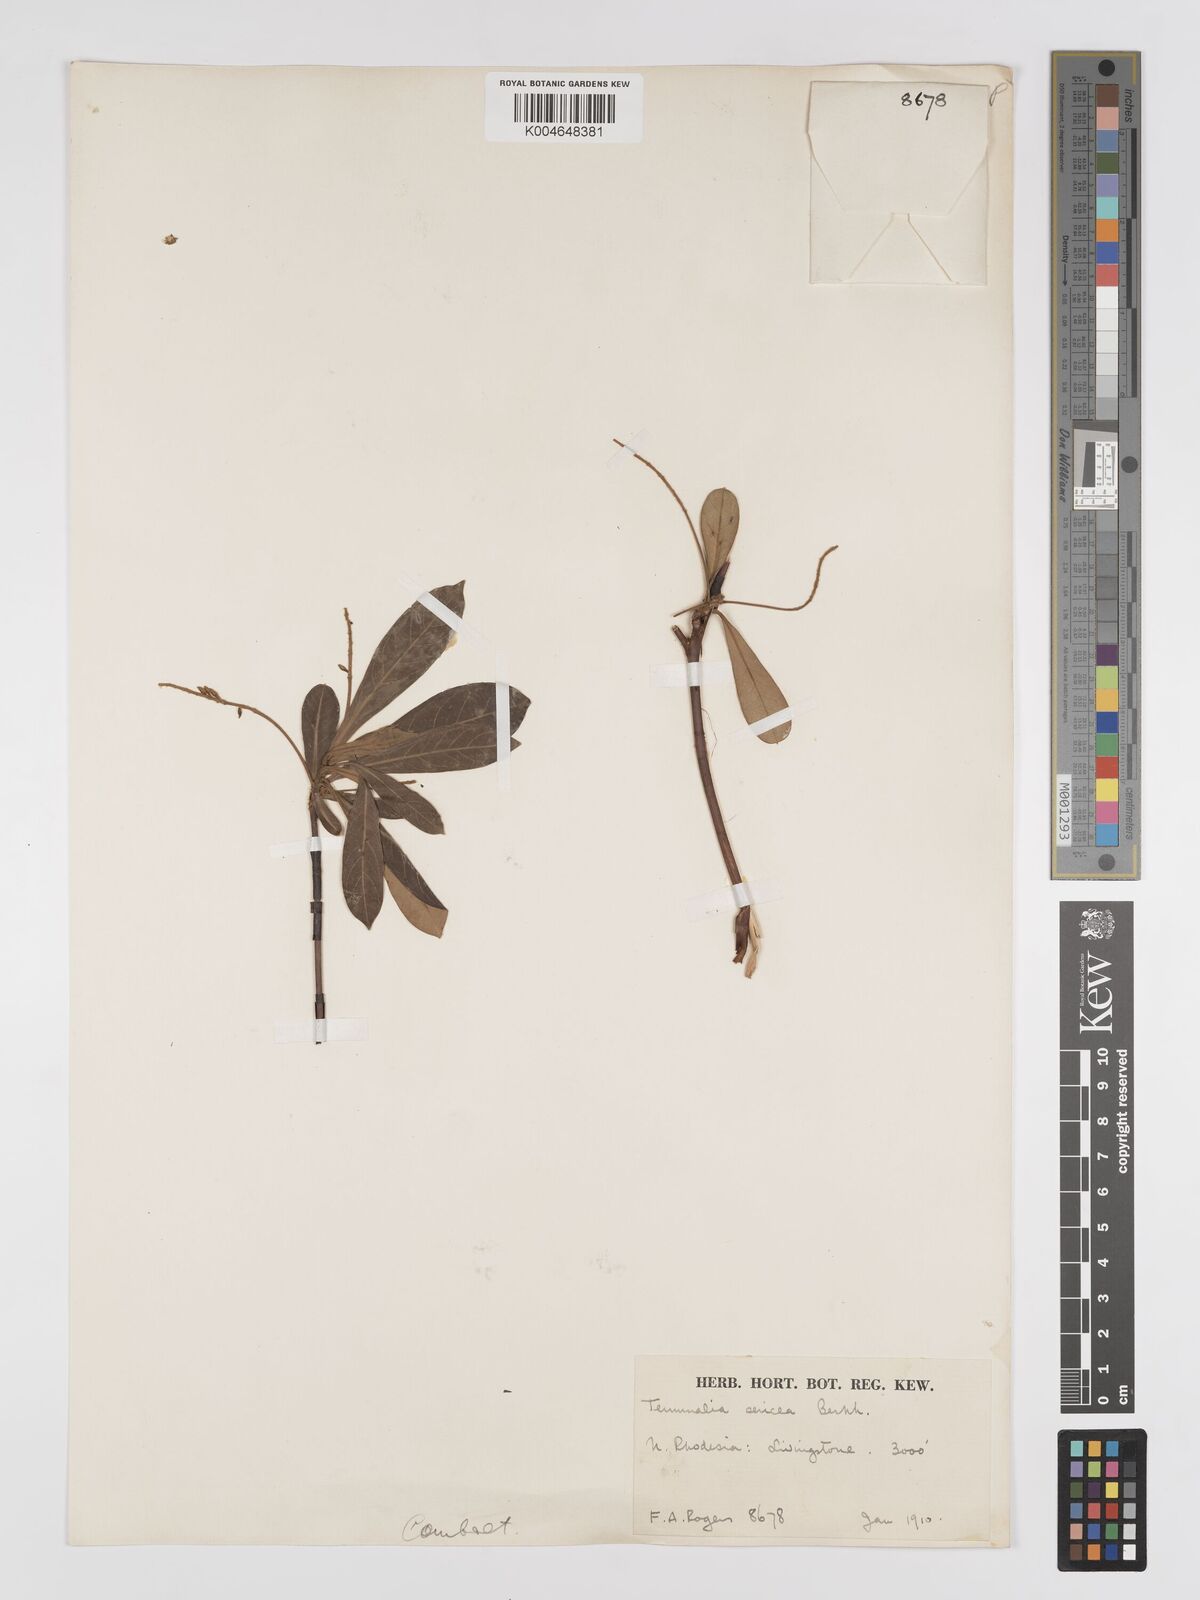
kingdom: Plantae
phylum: Tracheophyta
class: Magnoliopsida
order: Myrtales
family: Combretaceae
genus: Terminalia
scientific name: Terminalia
